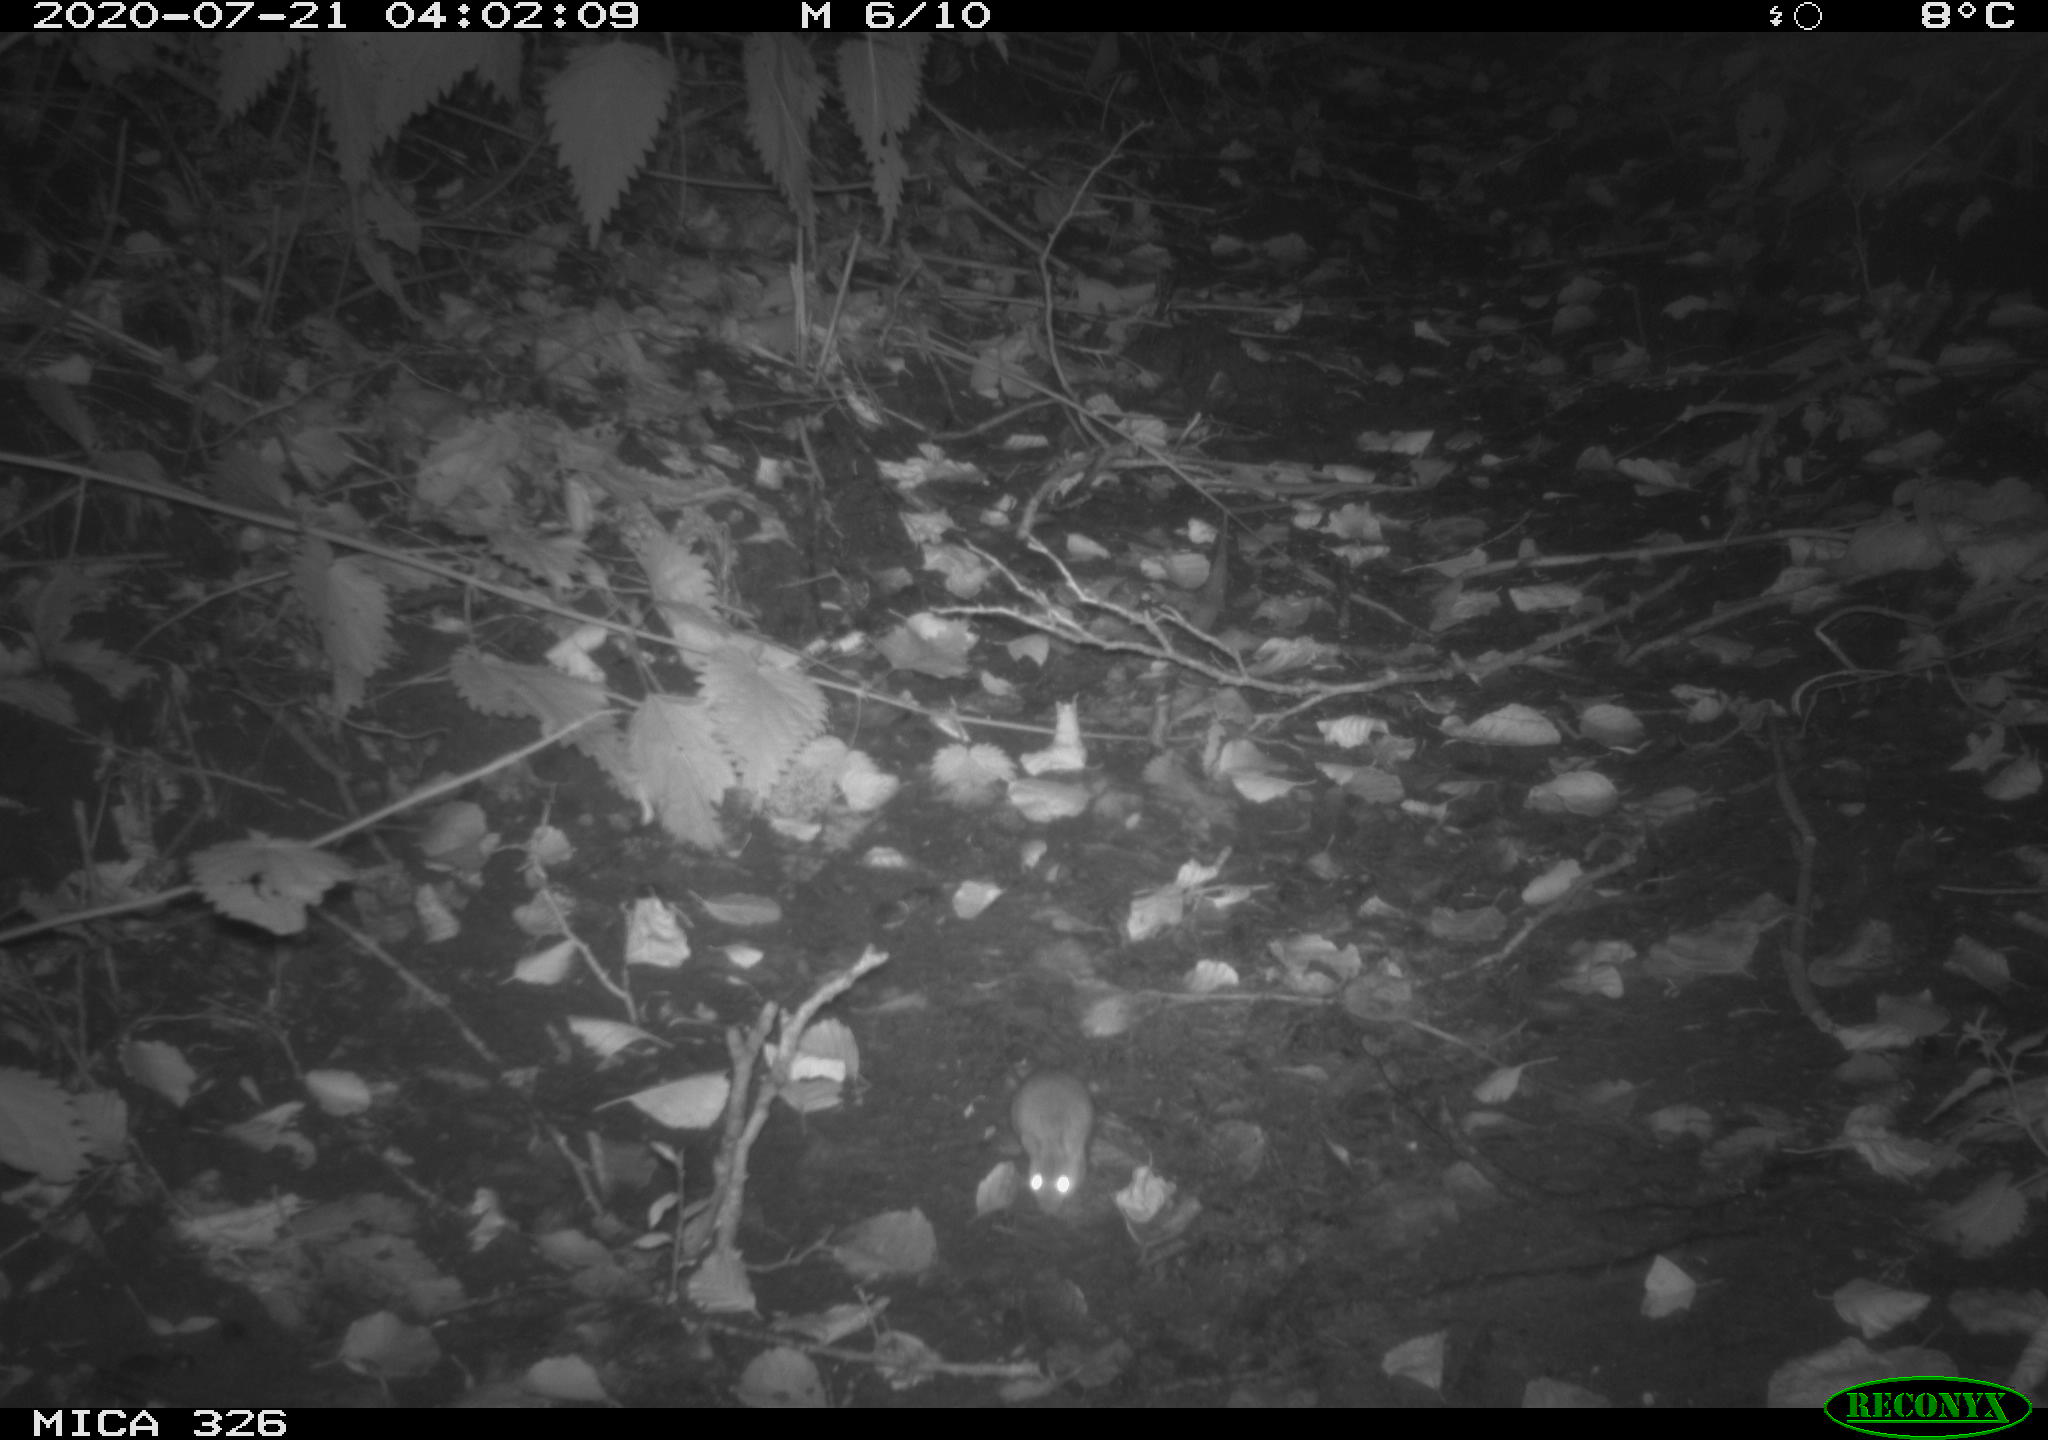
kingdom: Animalia
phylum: Chordata
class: Mammalia
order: Rodentia
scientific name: Rodentia
